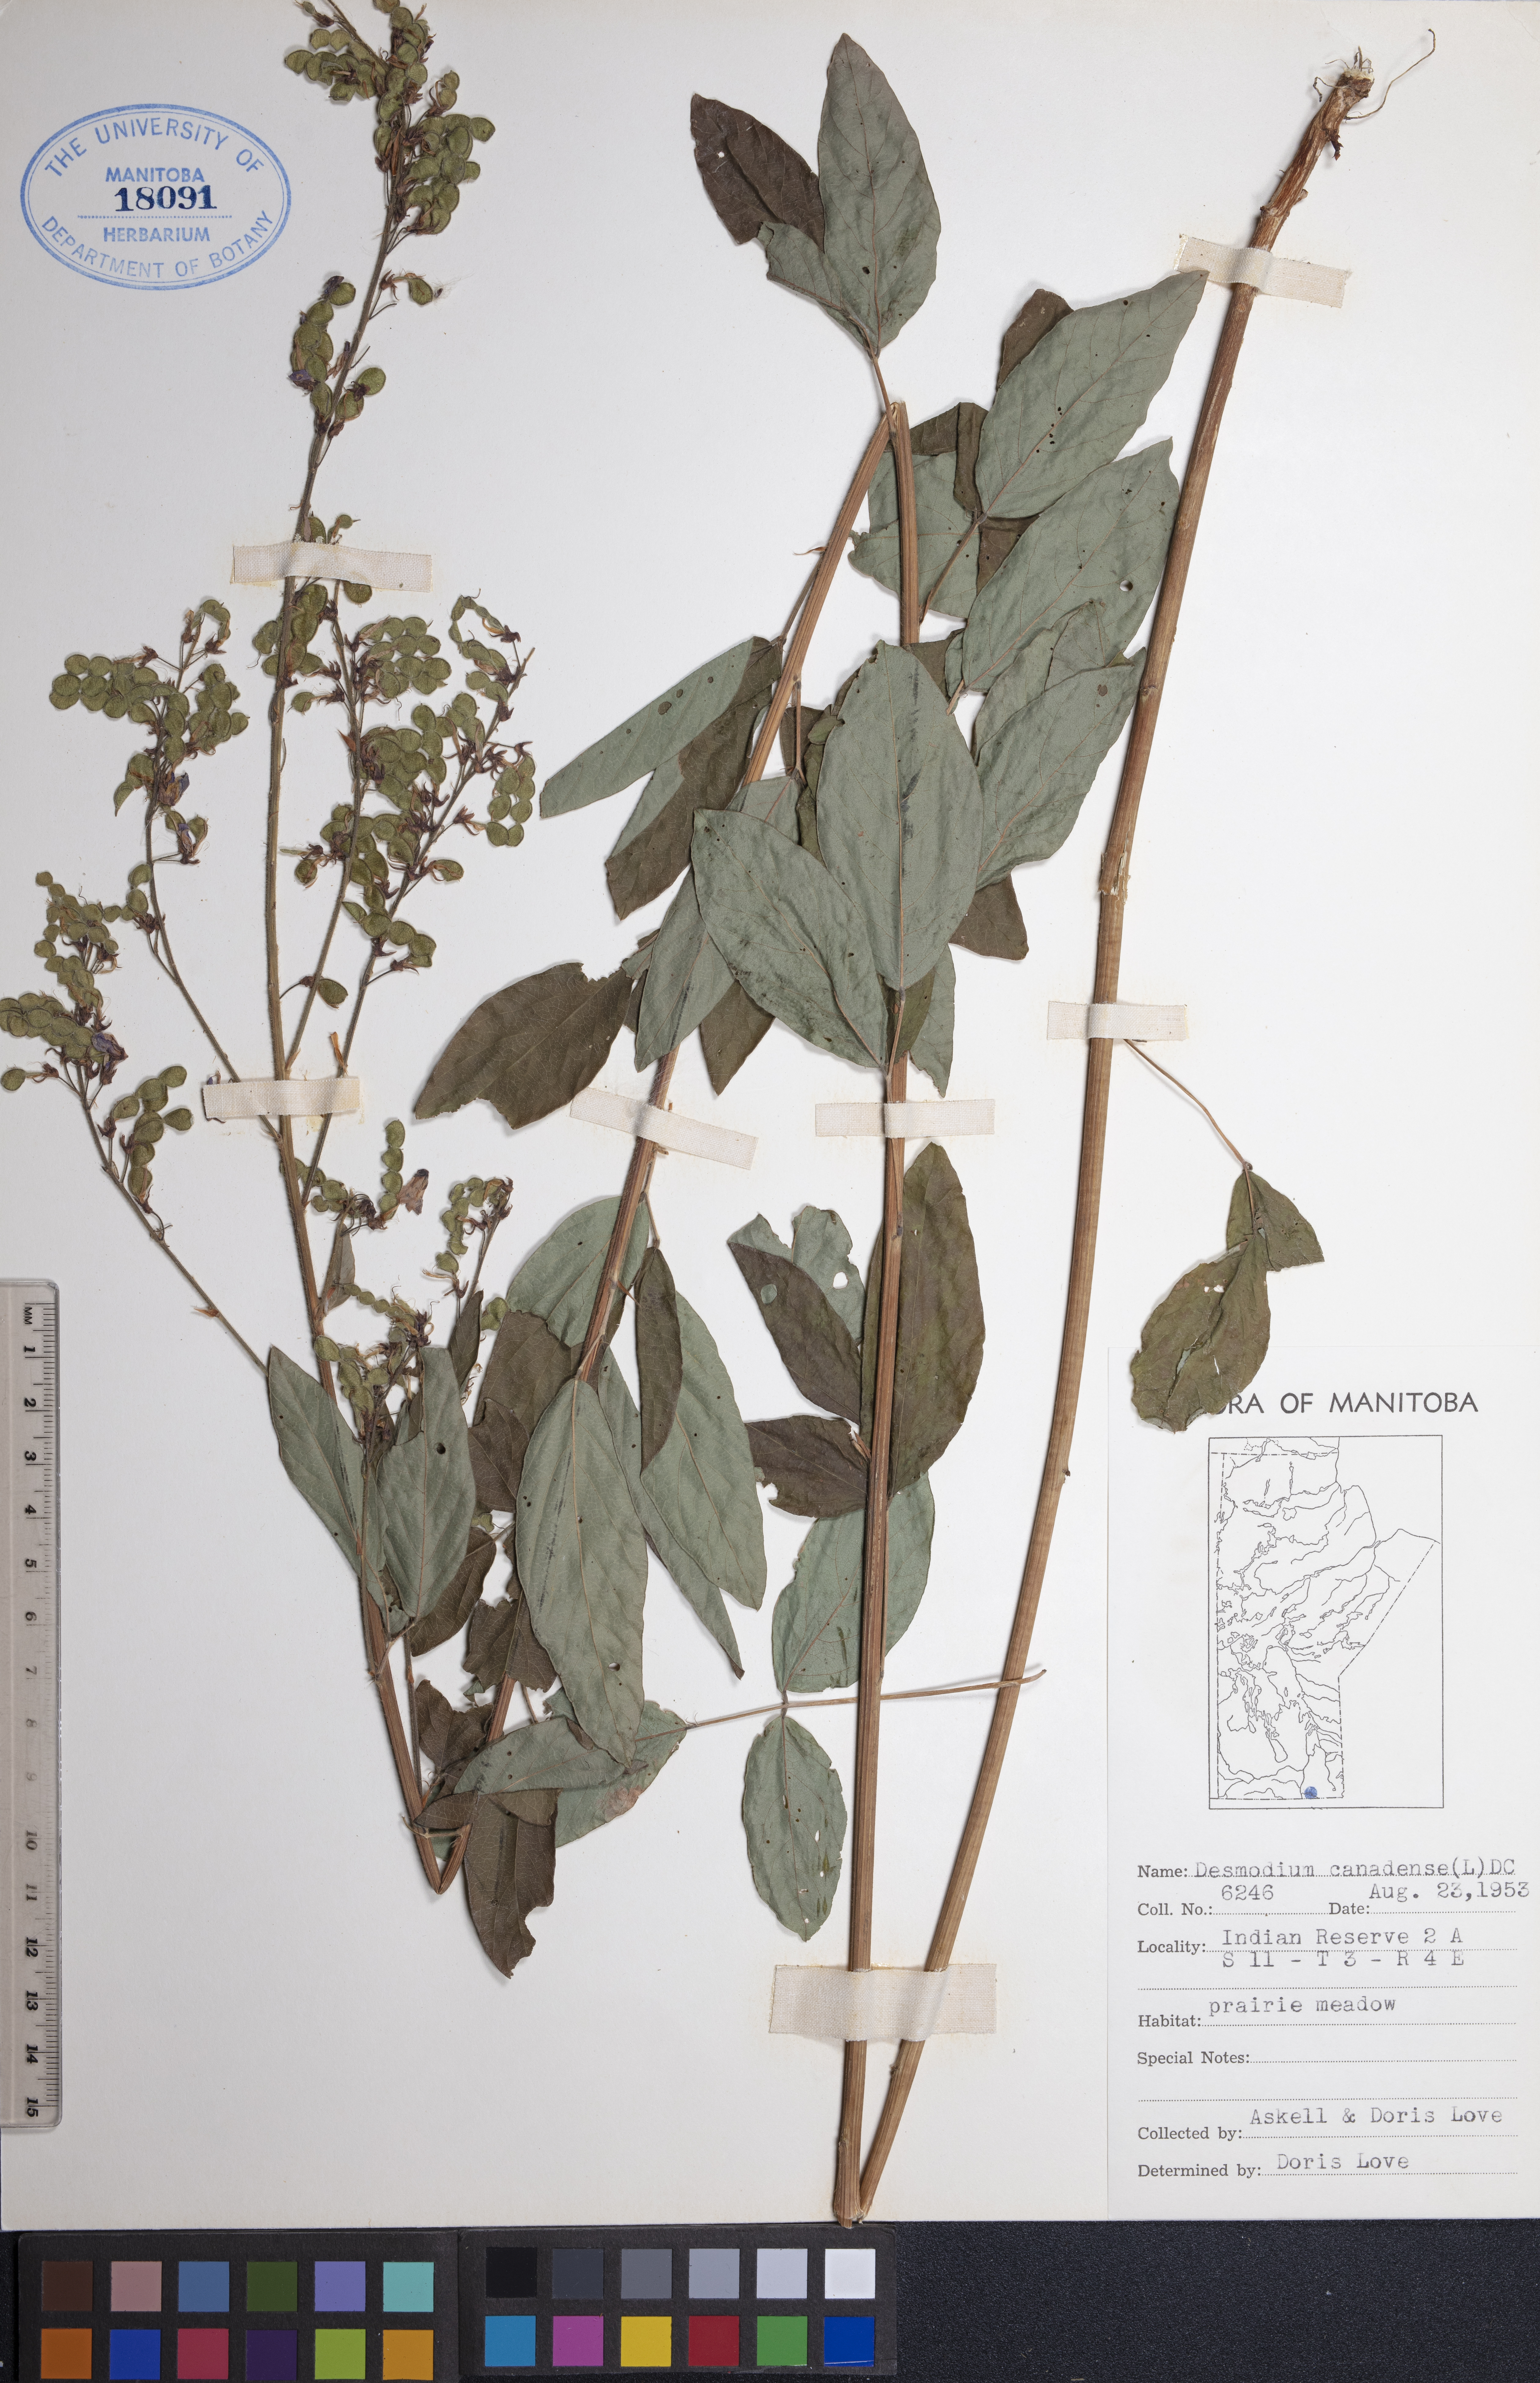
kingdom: Plantae
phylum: Tracheophyta
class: Magnoliopsida
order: Fabales
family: Fabaceae
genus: Desmodium
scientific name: Desmodium canadense
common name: Canada tick-trefoil
